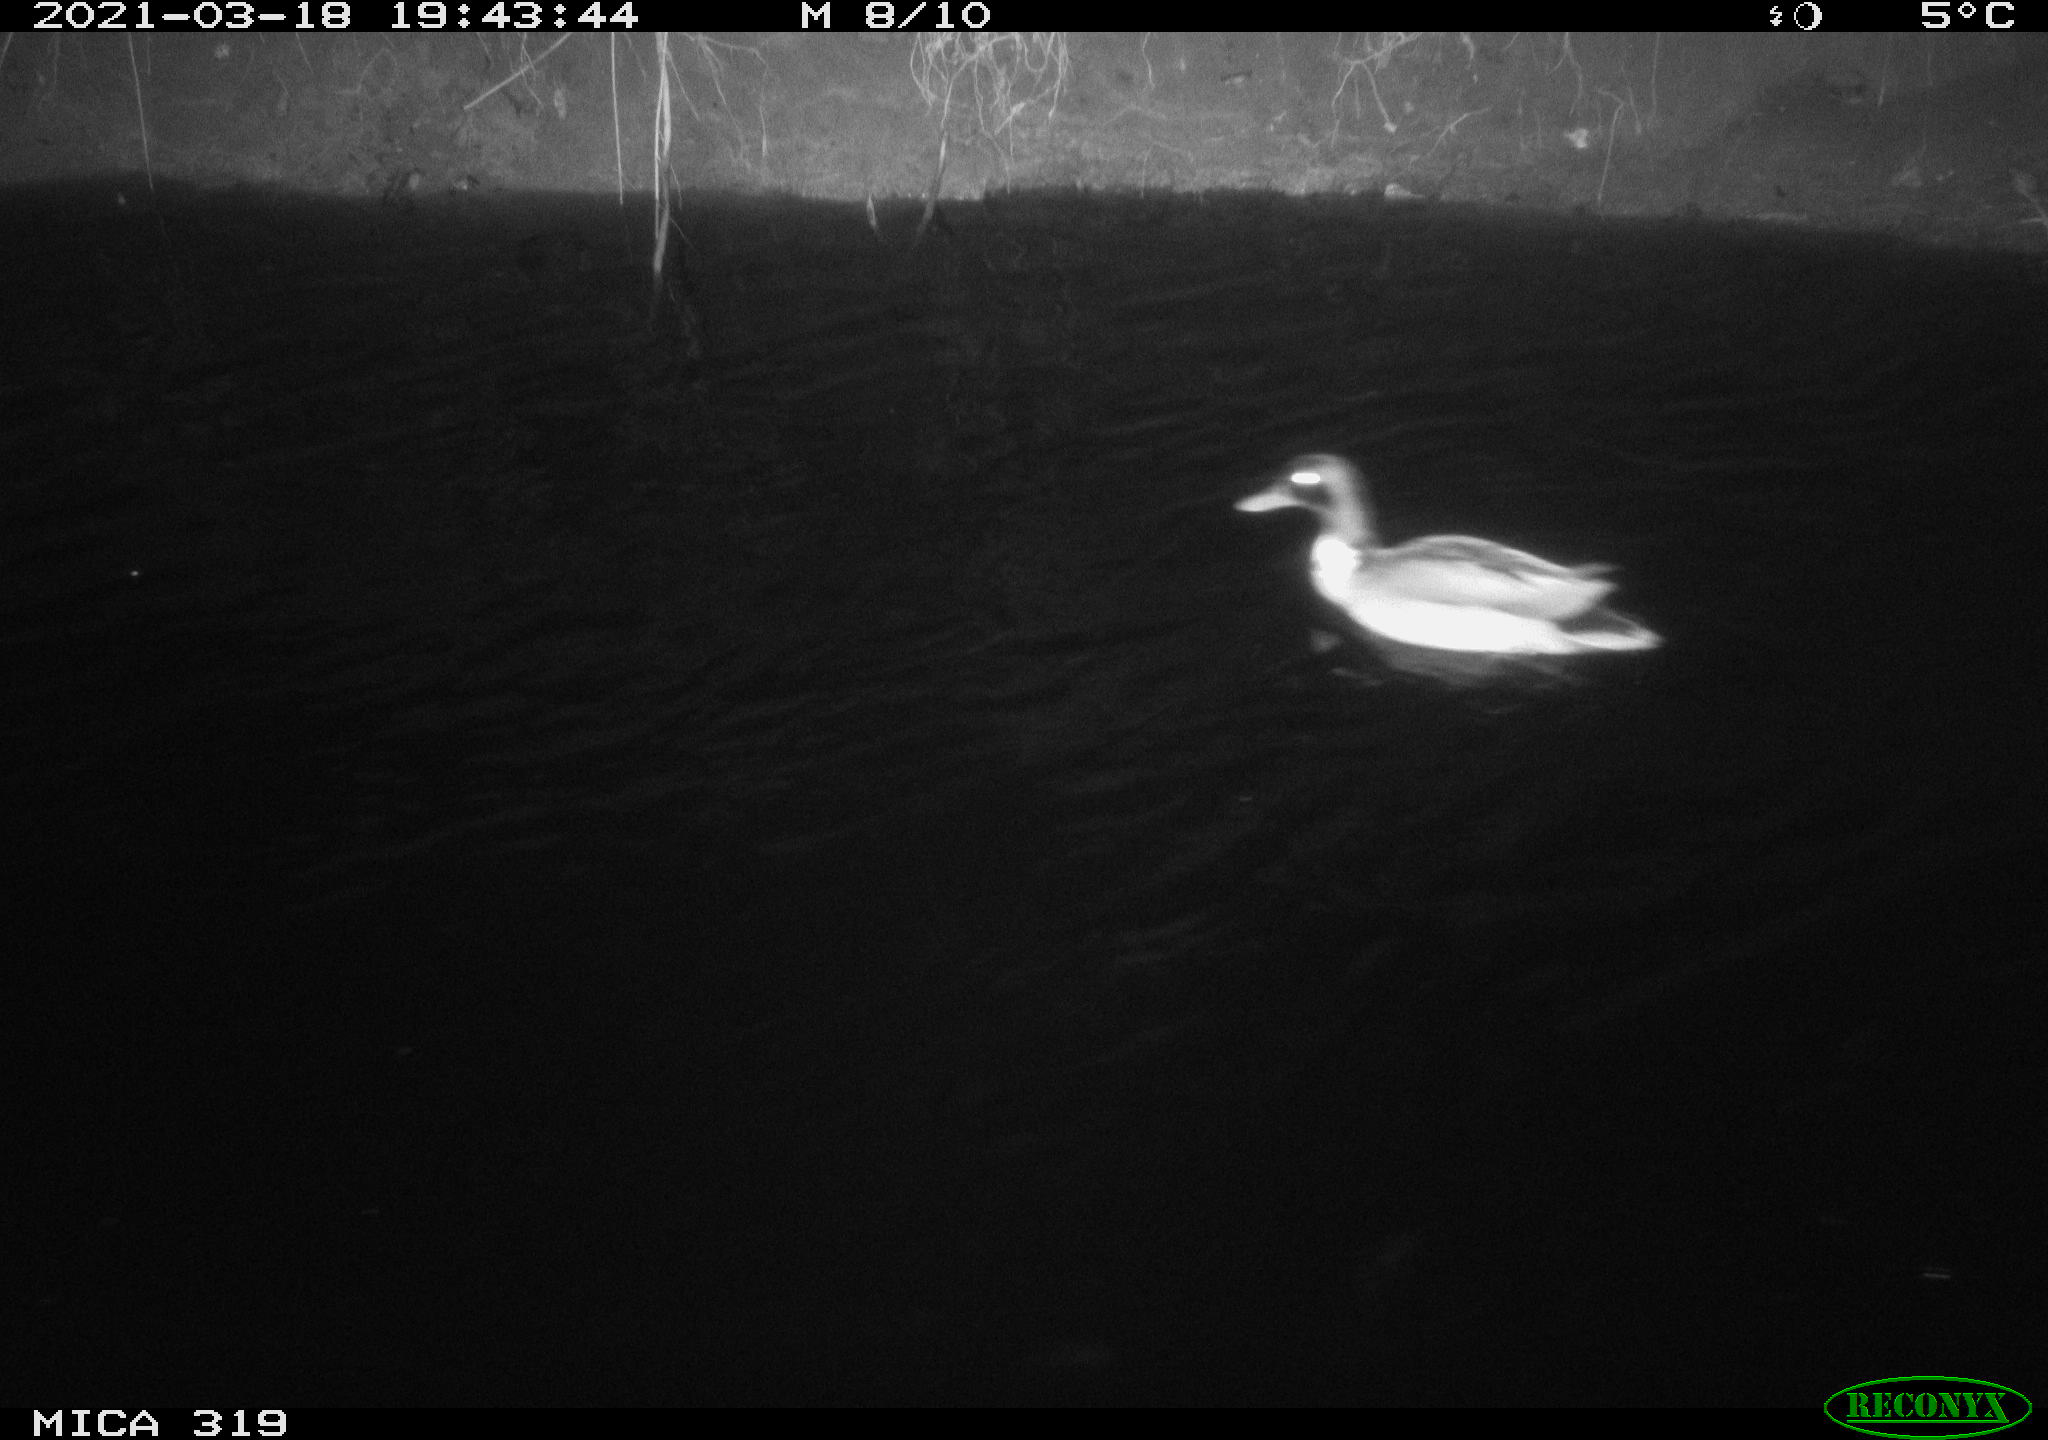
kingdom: Animalia
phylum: Chordata
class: Aves
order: Anseriformes
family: Anatidae
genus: Anas
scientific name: Anas platyrhynchos
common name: Mallard
